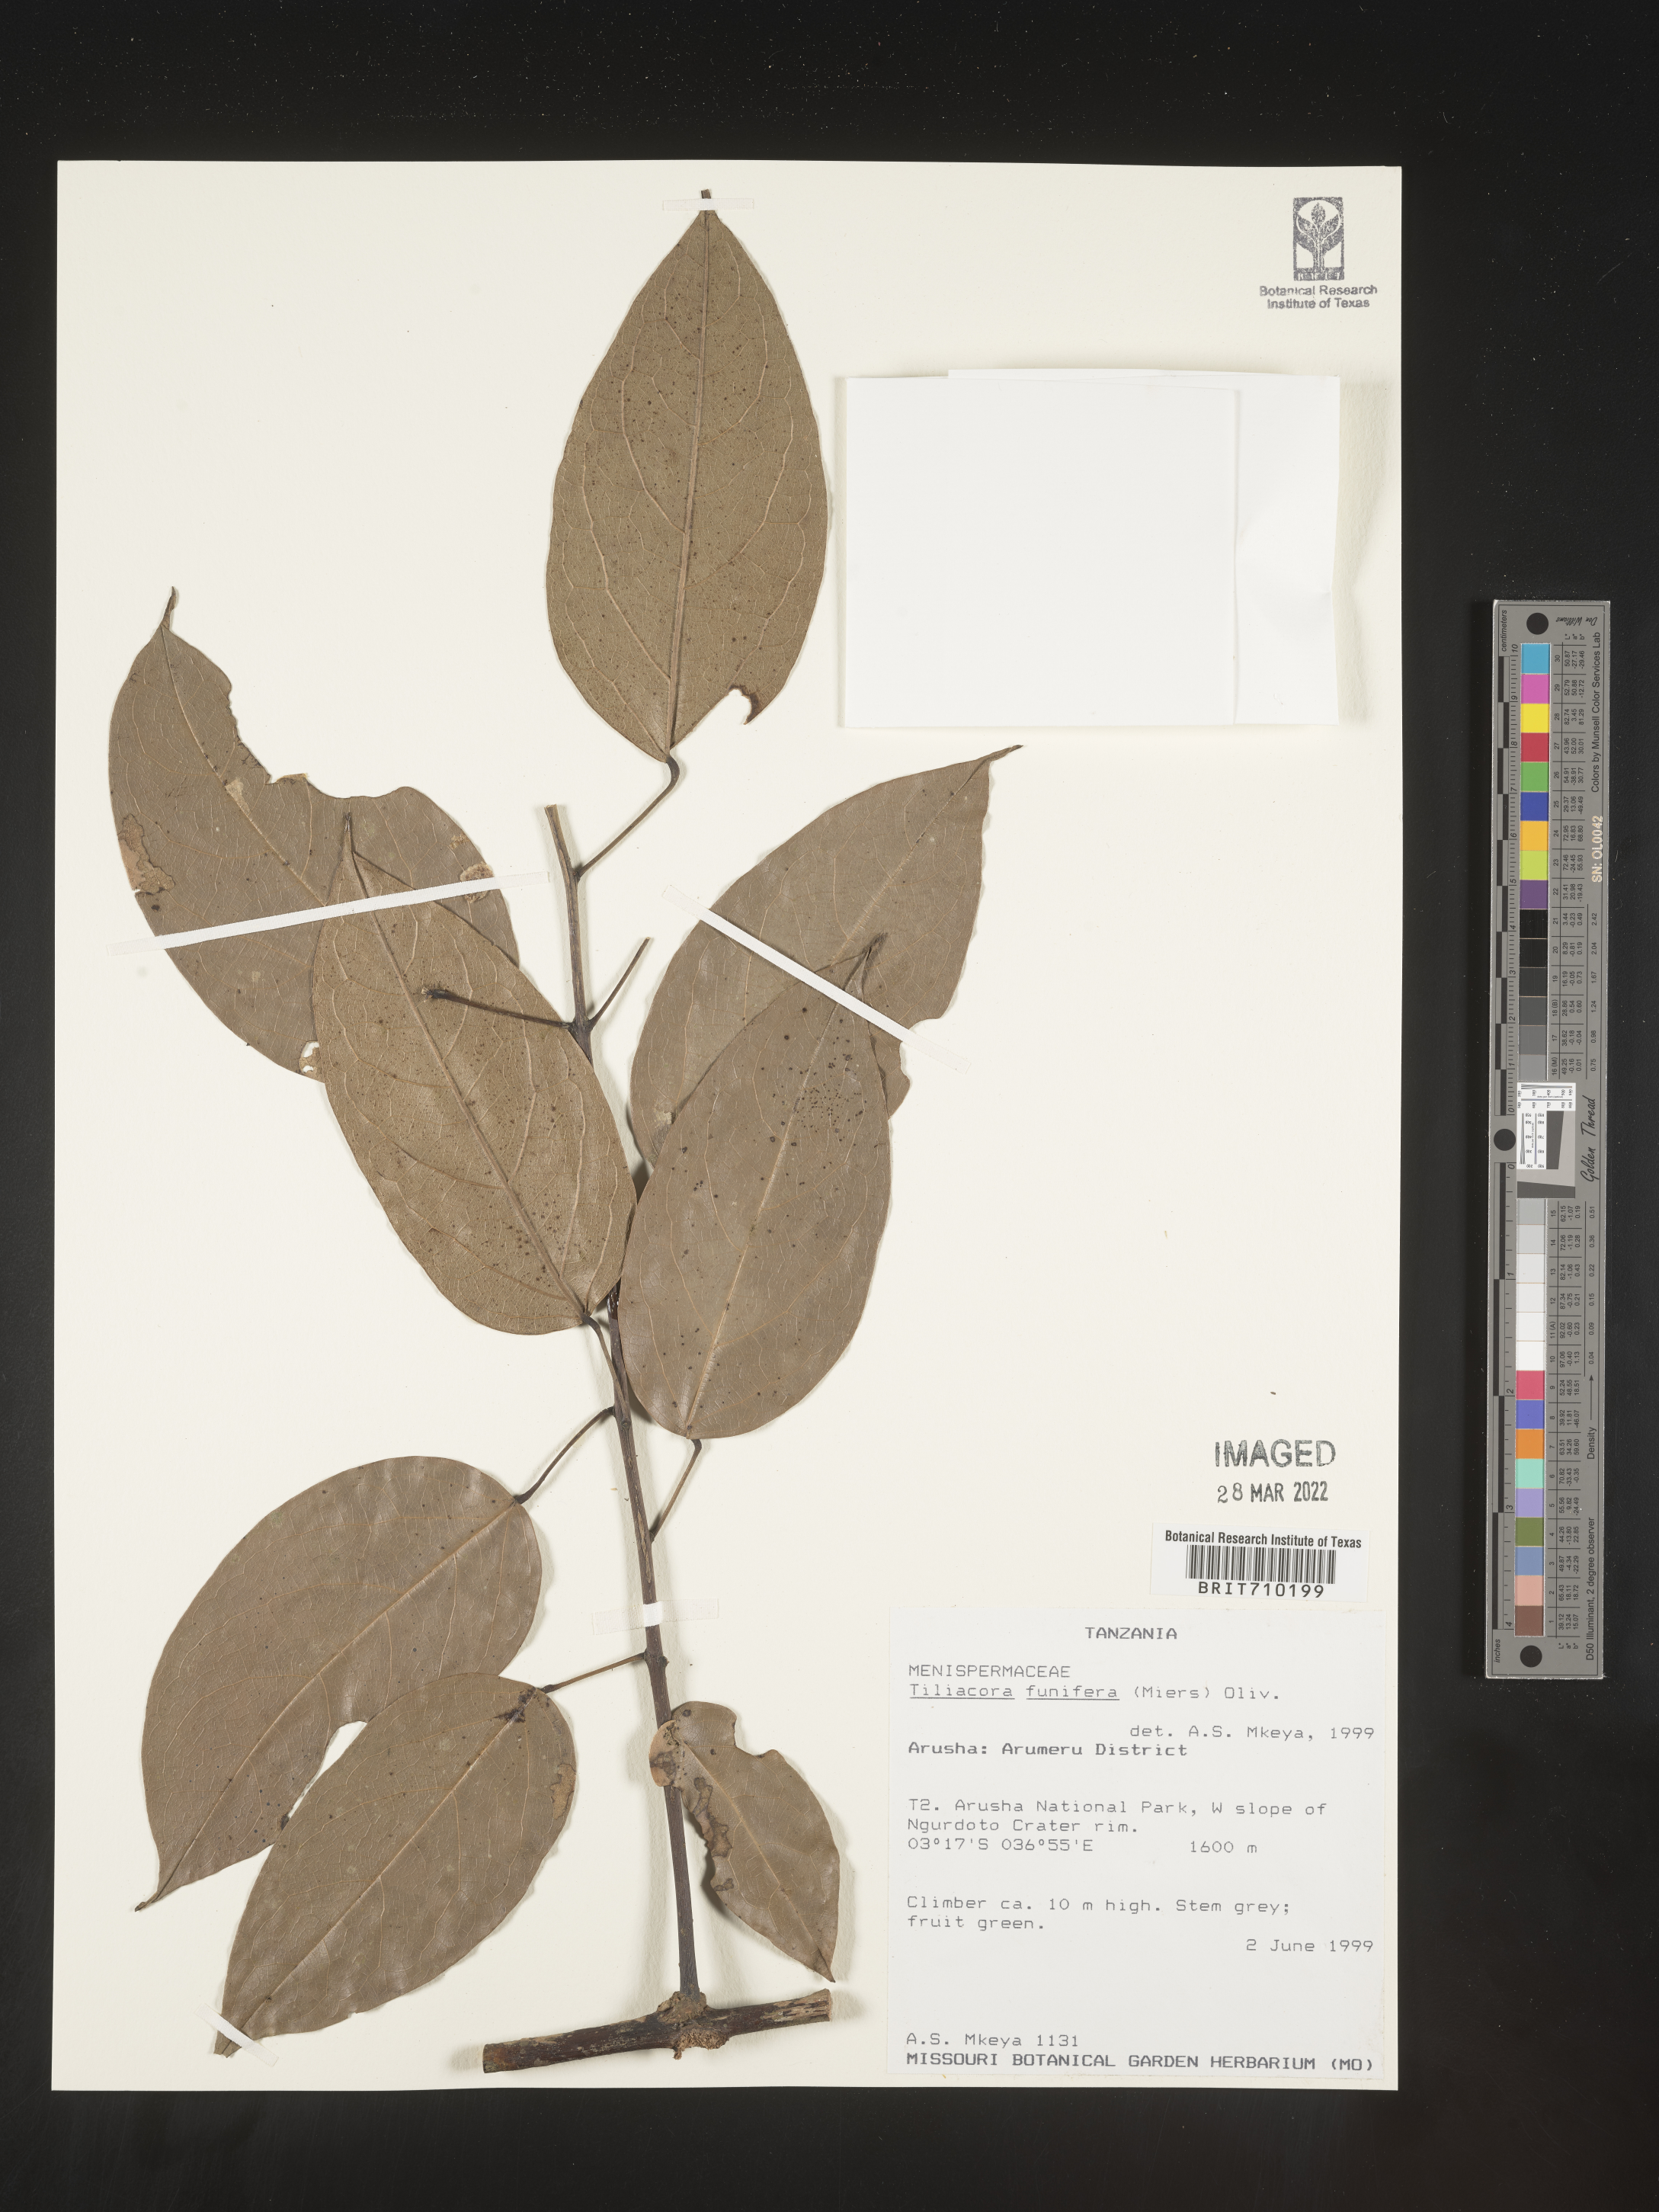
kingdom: Plantae
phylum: Tracheophyta
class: Magnoliopsida
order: Ranunculales
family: Menispermaceae
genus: Tiliacora
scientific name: Tiliacora
